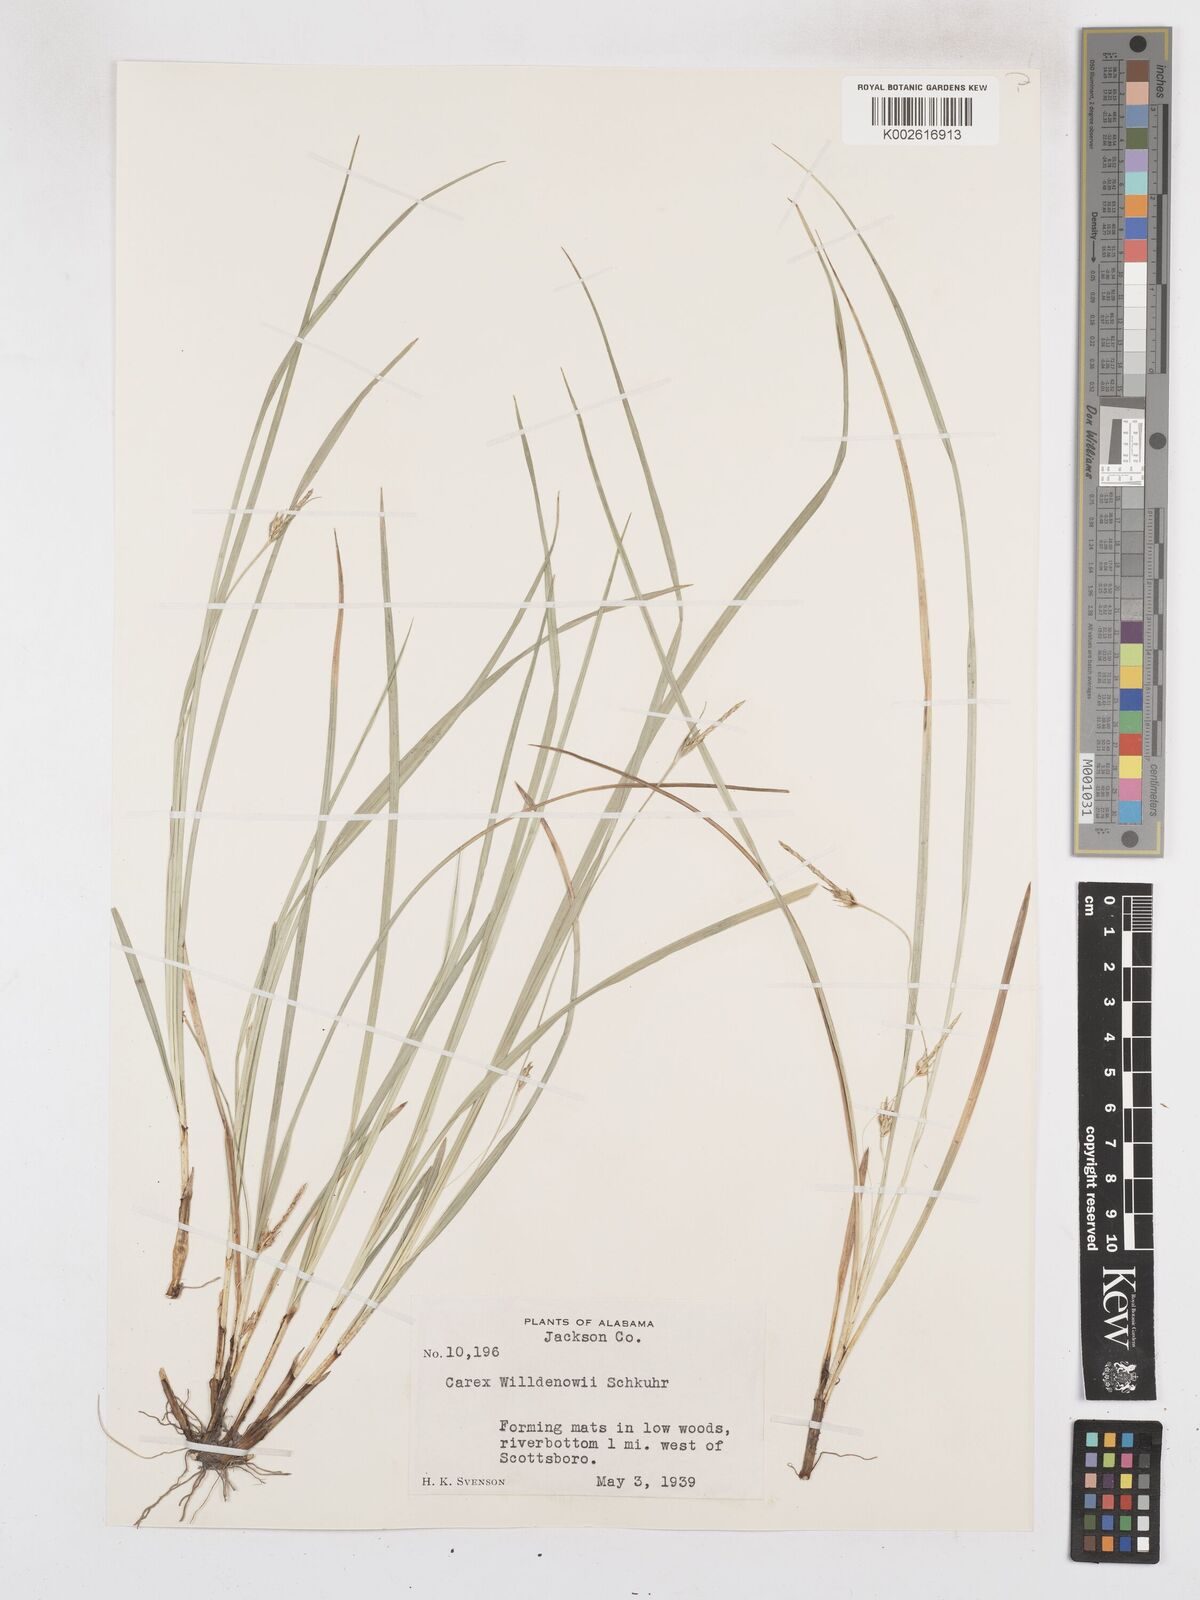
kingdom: Plantae
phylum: Tracheophyta
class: Liliopsida
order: Poales
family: Cyperaceae
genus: Carex
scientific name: Carex willdenowii
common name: Willdenow's sedge
